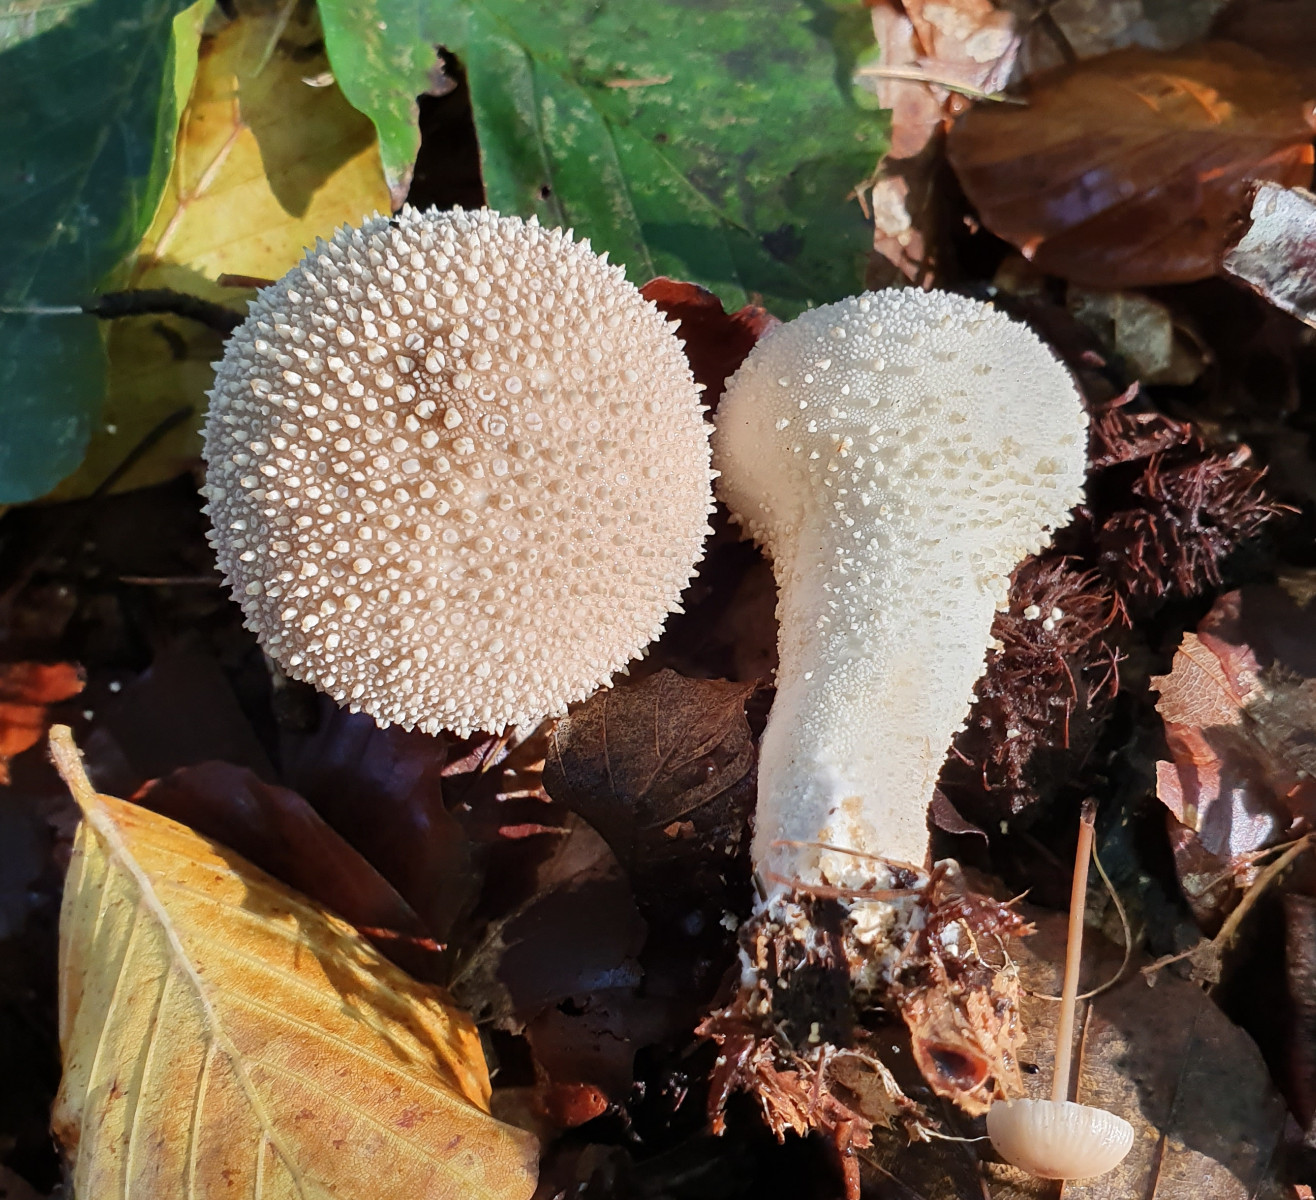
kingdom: Fungi
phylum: Basidiomycota
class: Agaricomycetes
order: Agaricales
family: Lycoperdaceae
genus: Lycoperdon
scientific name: Lycoperdon perlatum
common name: krystal-støvbold
